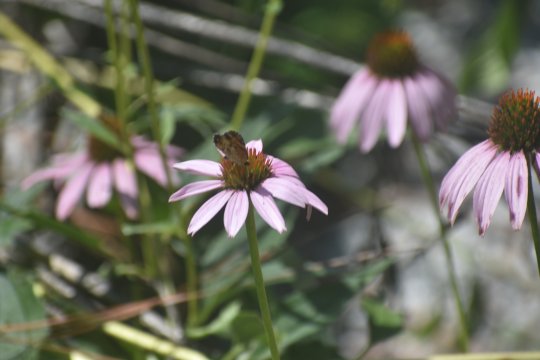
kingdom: Animalia
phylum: Arthropoda
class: Insecta
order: Lepidoptera
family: Nymphalidae
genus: Phyciodes
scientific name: Phyciodes tharos
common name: Pearl Crescent
